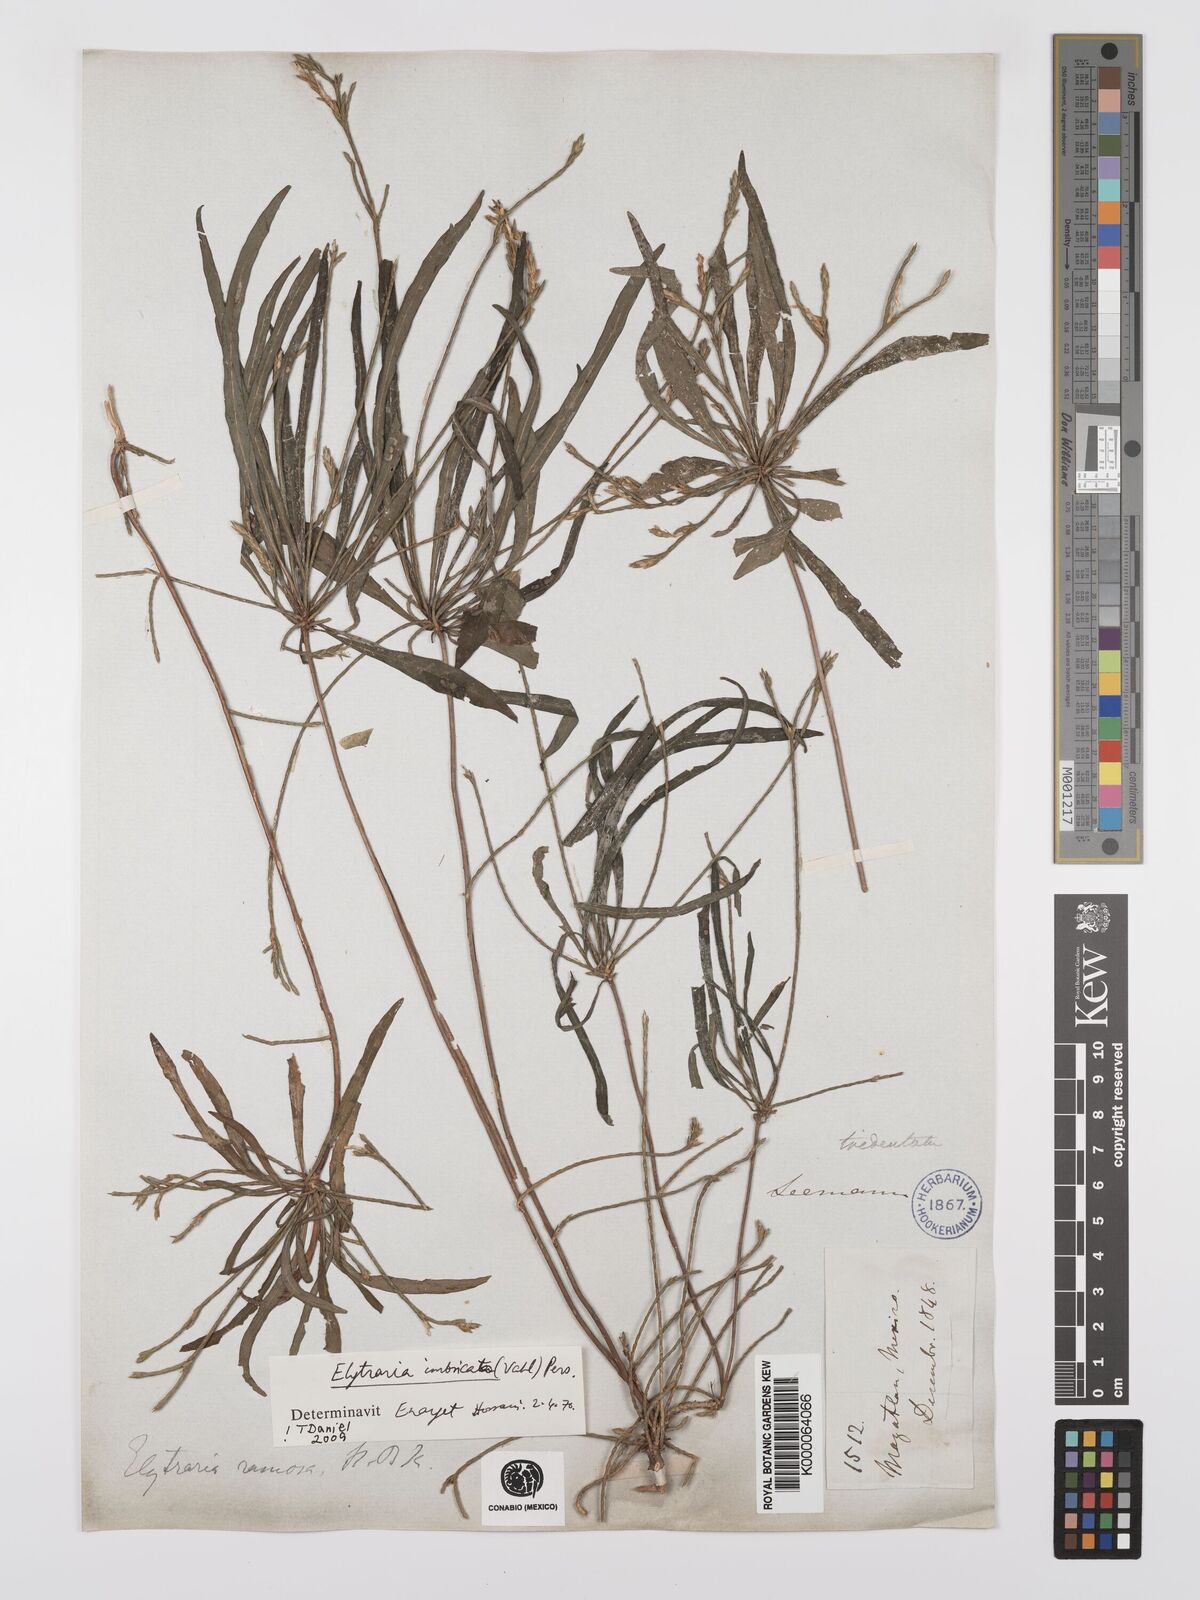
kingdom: Plantae
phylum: Tracheophyta
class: Magnoliopsida
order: Lamiales
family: Acanthaceae
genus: Elytraria
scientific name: Elytraria imbricata
